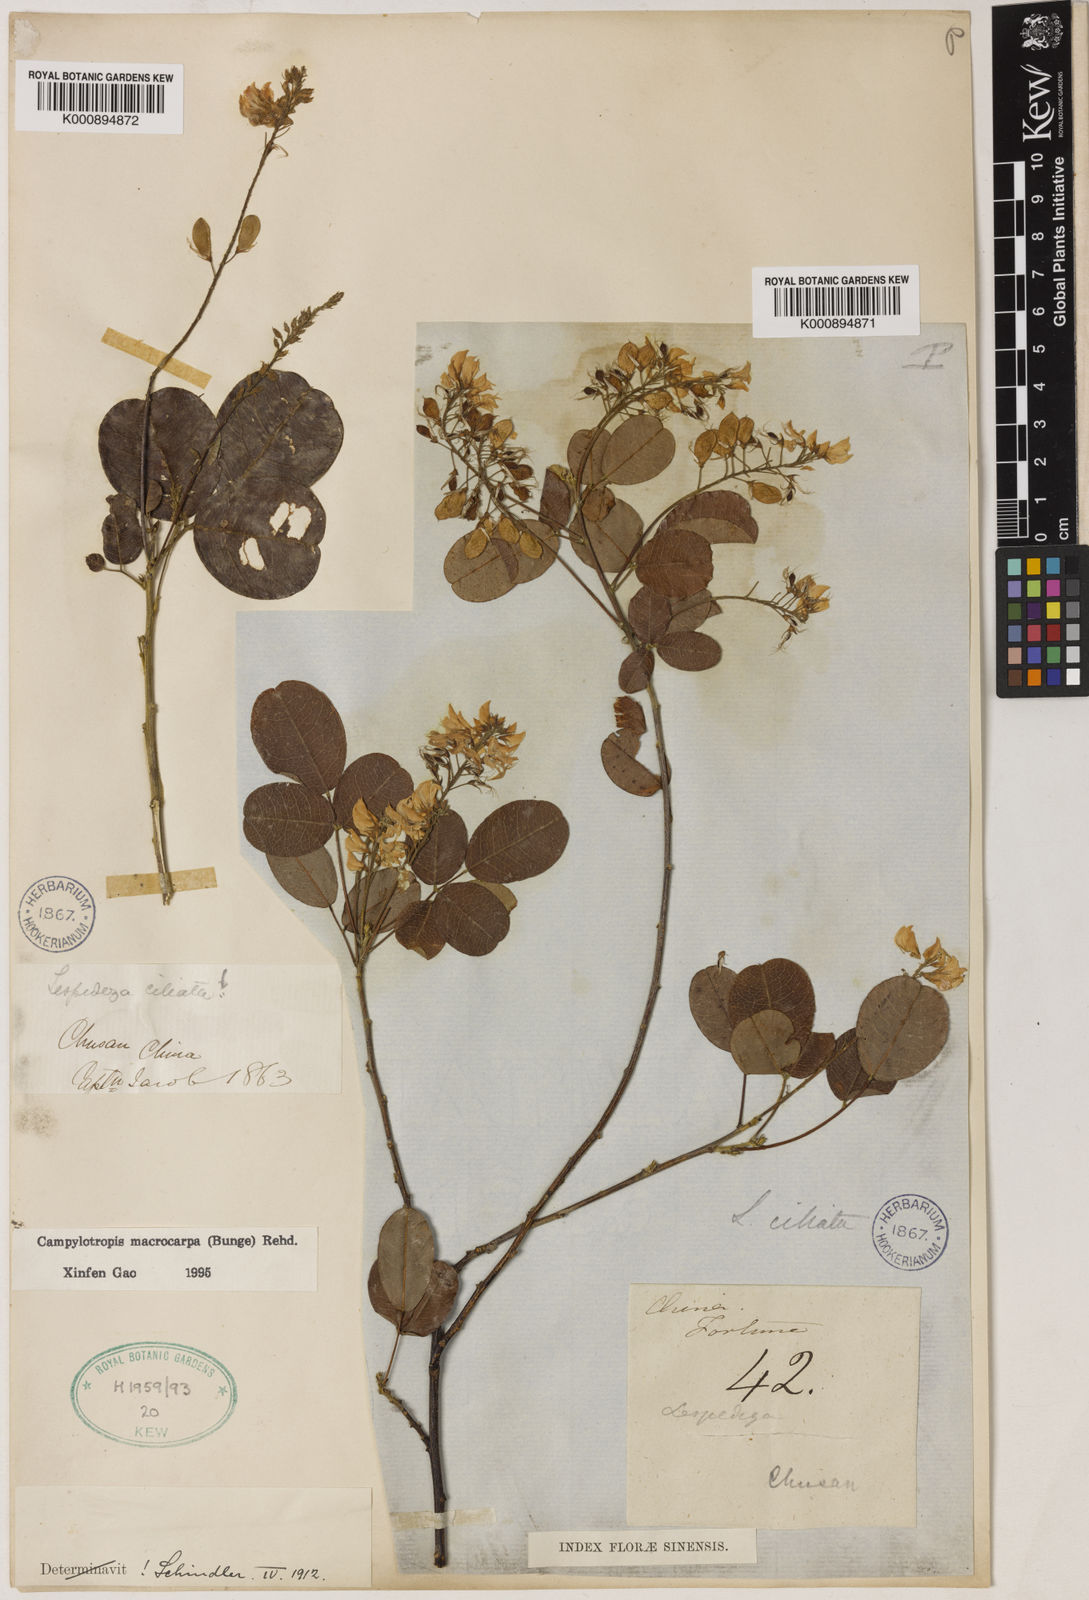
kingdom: Plantae
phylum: Tracheophyta
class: Magnoliopsida
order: Fabales
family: Fabaceae
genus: Campylotropis
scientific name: Campylotropis macrocarpa
